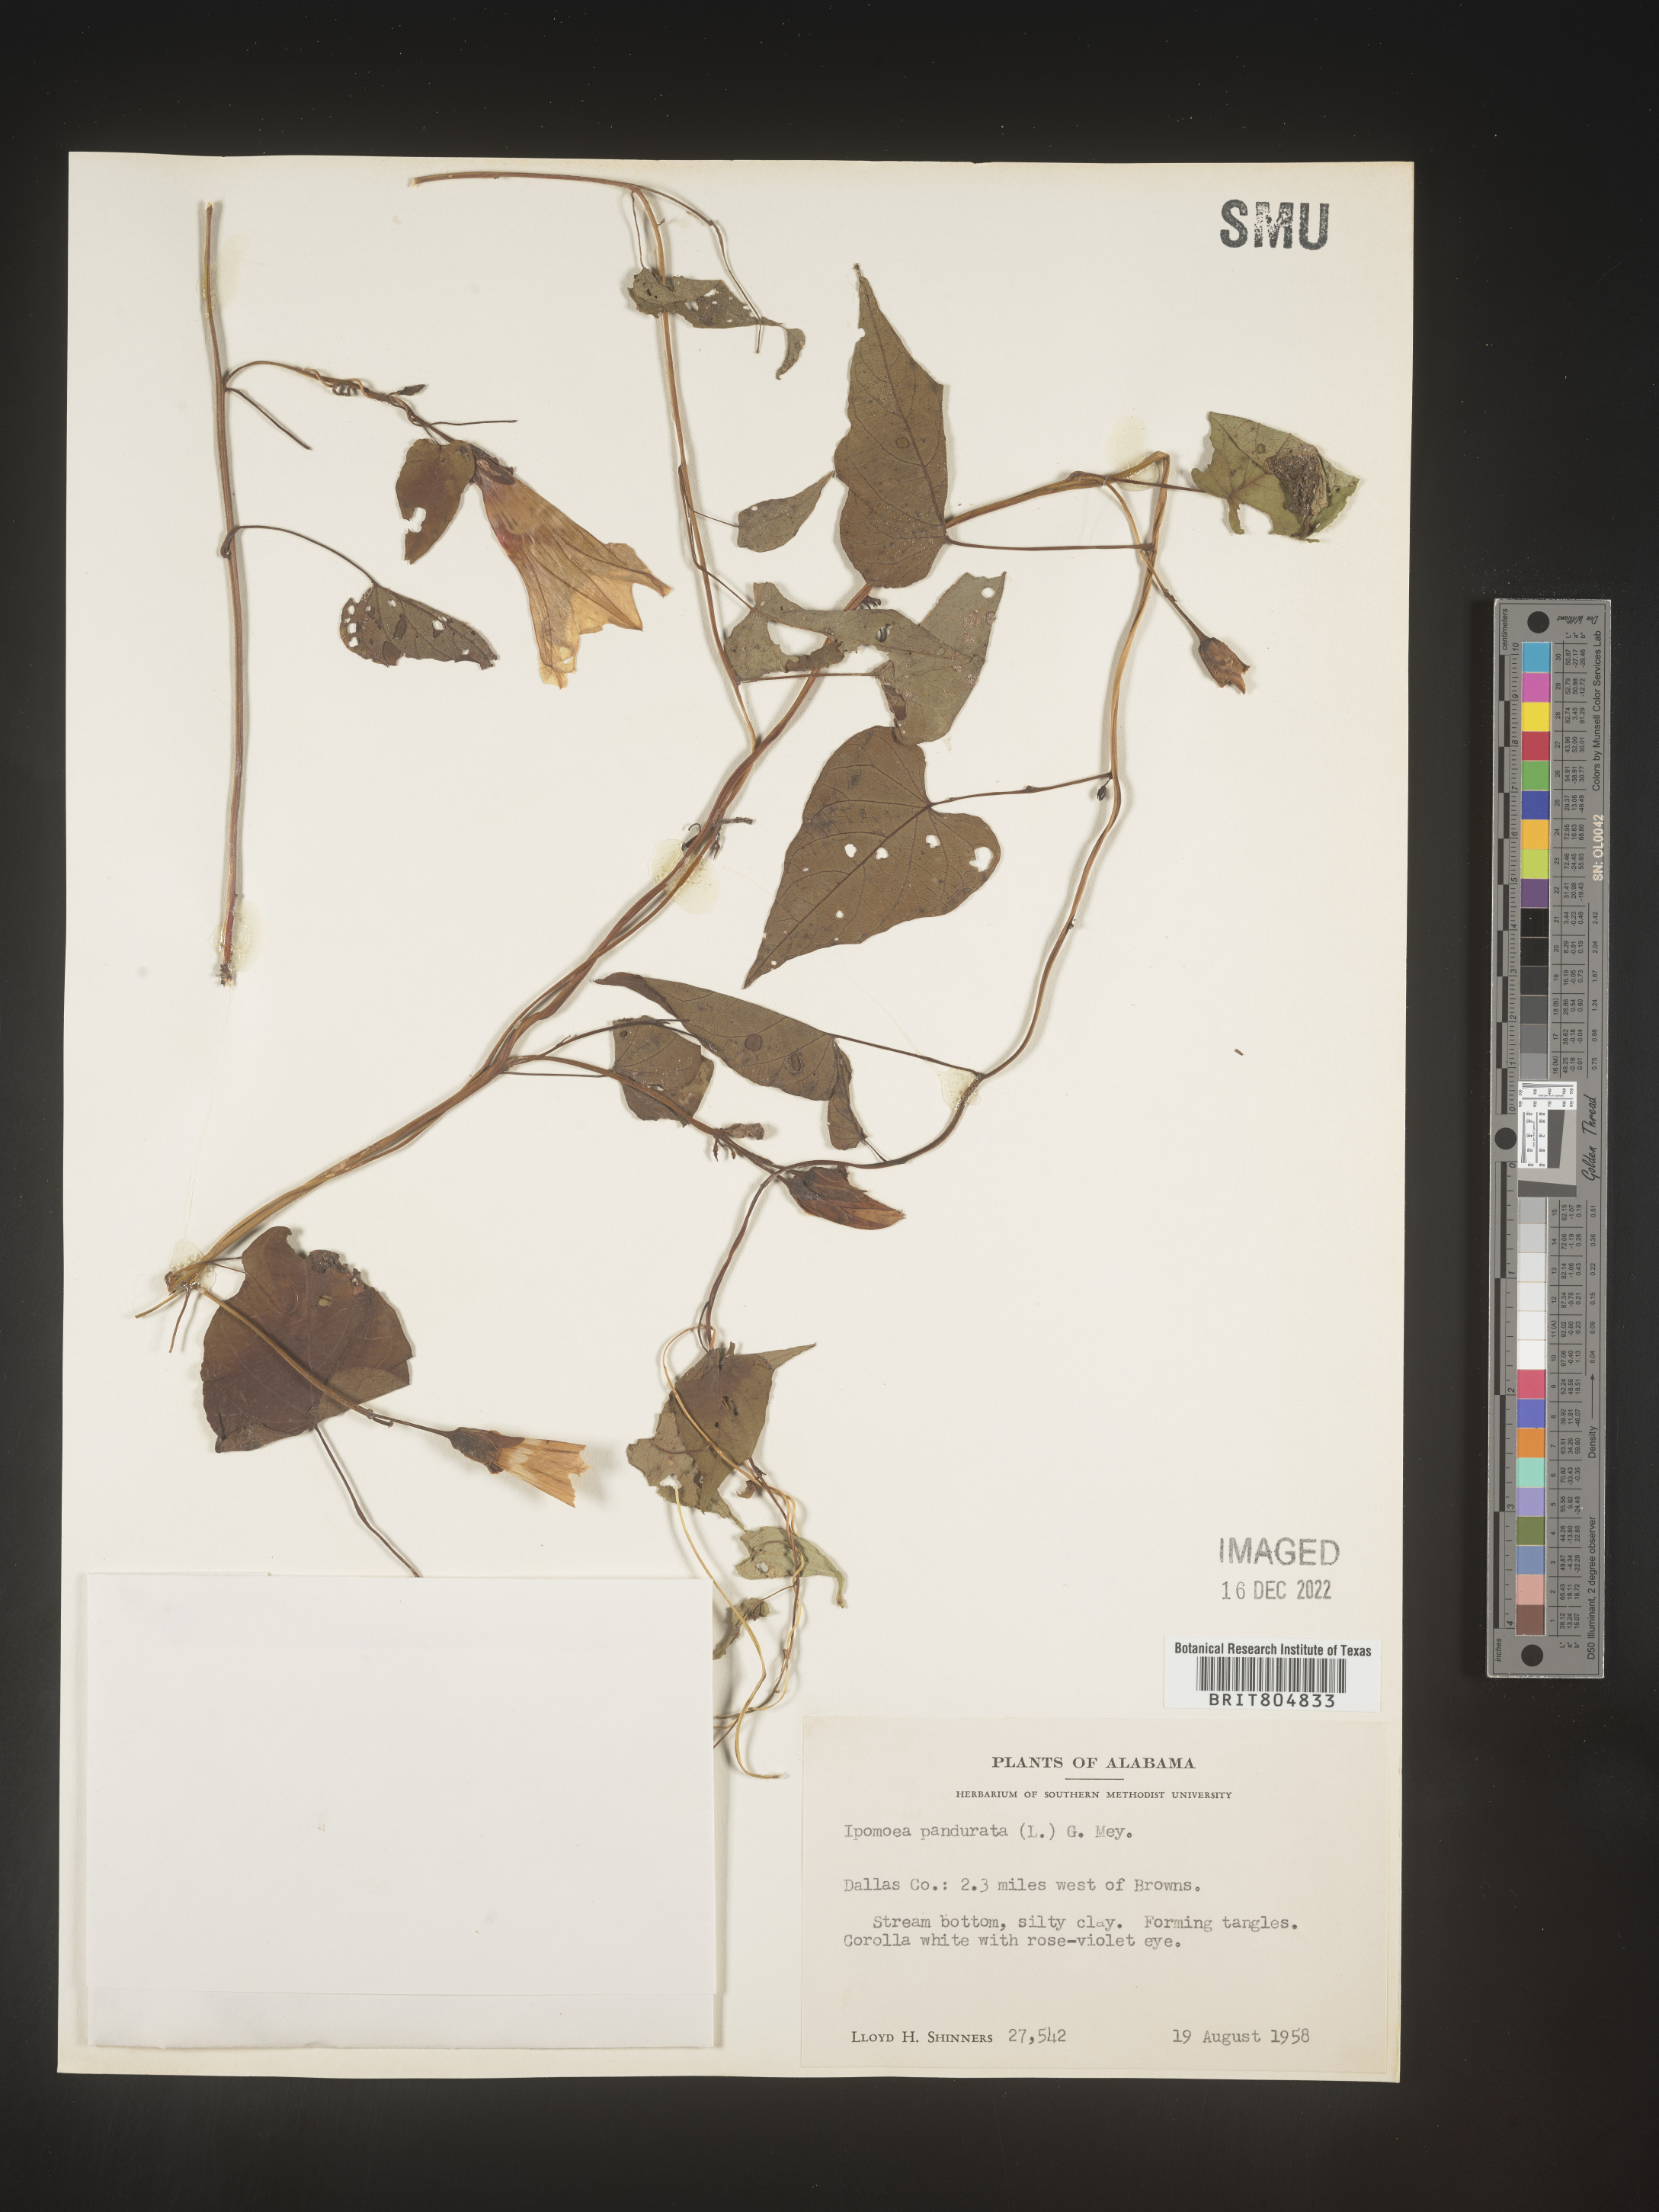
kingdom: Plantae
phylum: Tracheophyta
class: Magnoliopsida
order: Solanales
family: Convolvulaceae
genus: Ipomoea
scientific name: Ipomoea pandurata
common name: Man-of-the-earth
